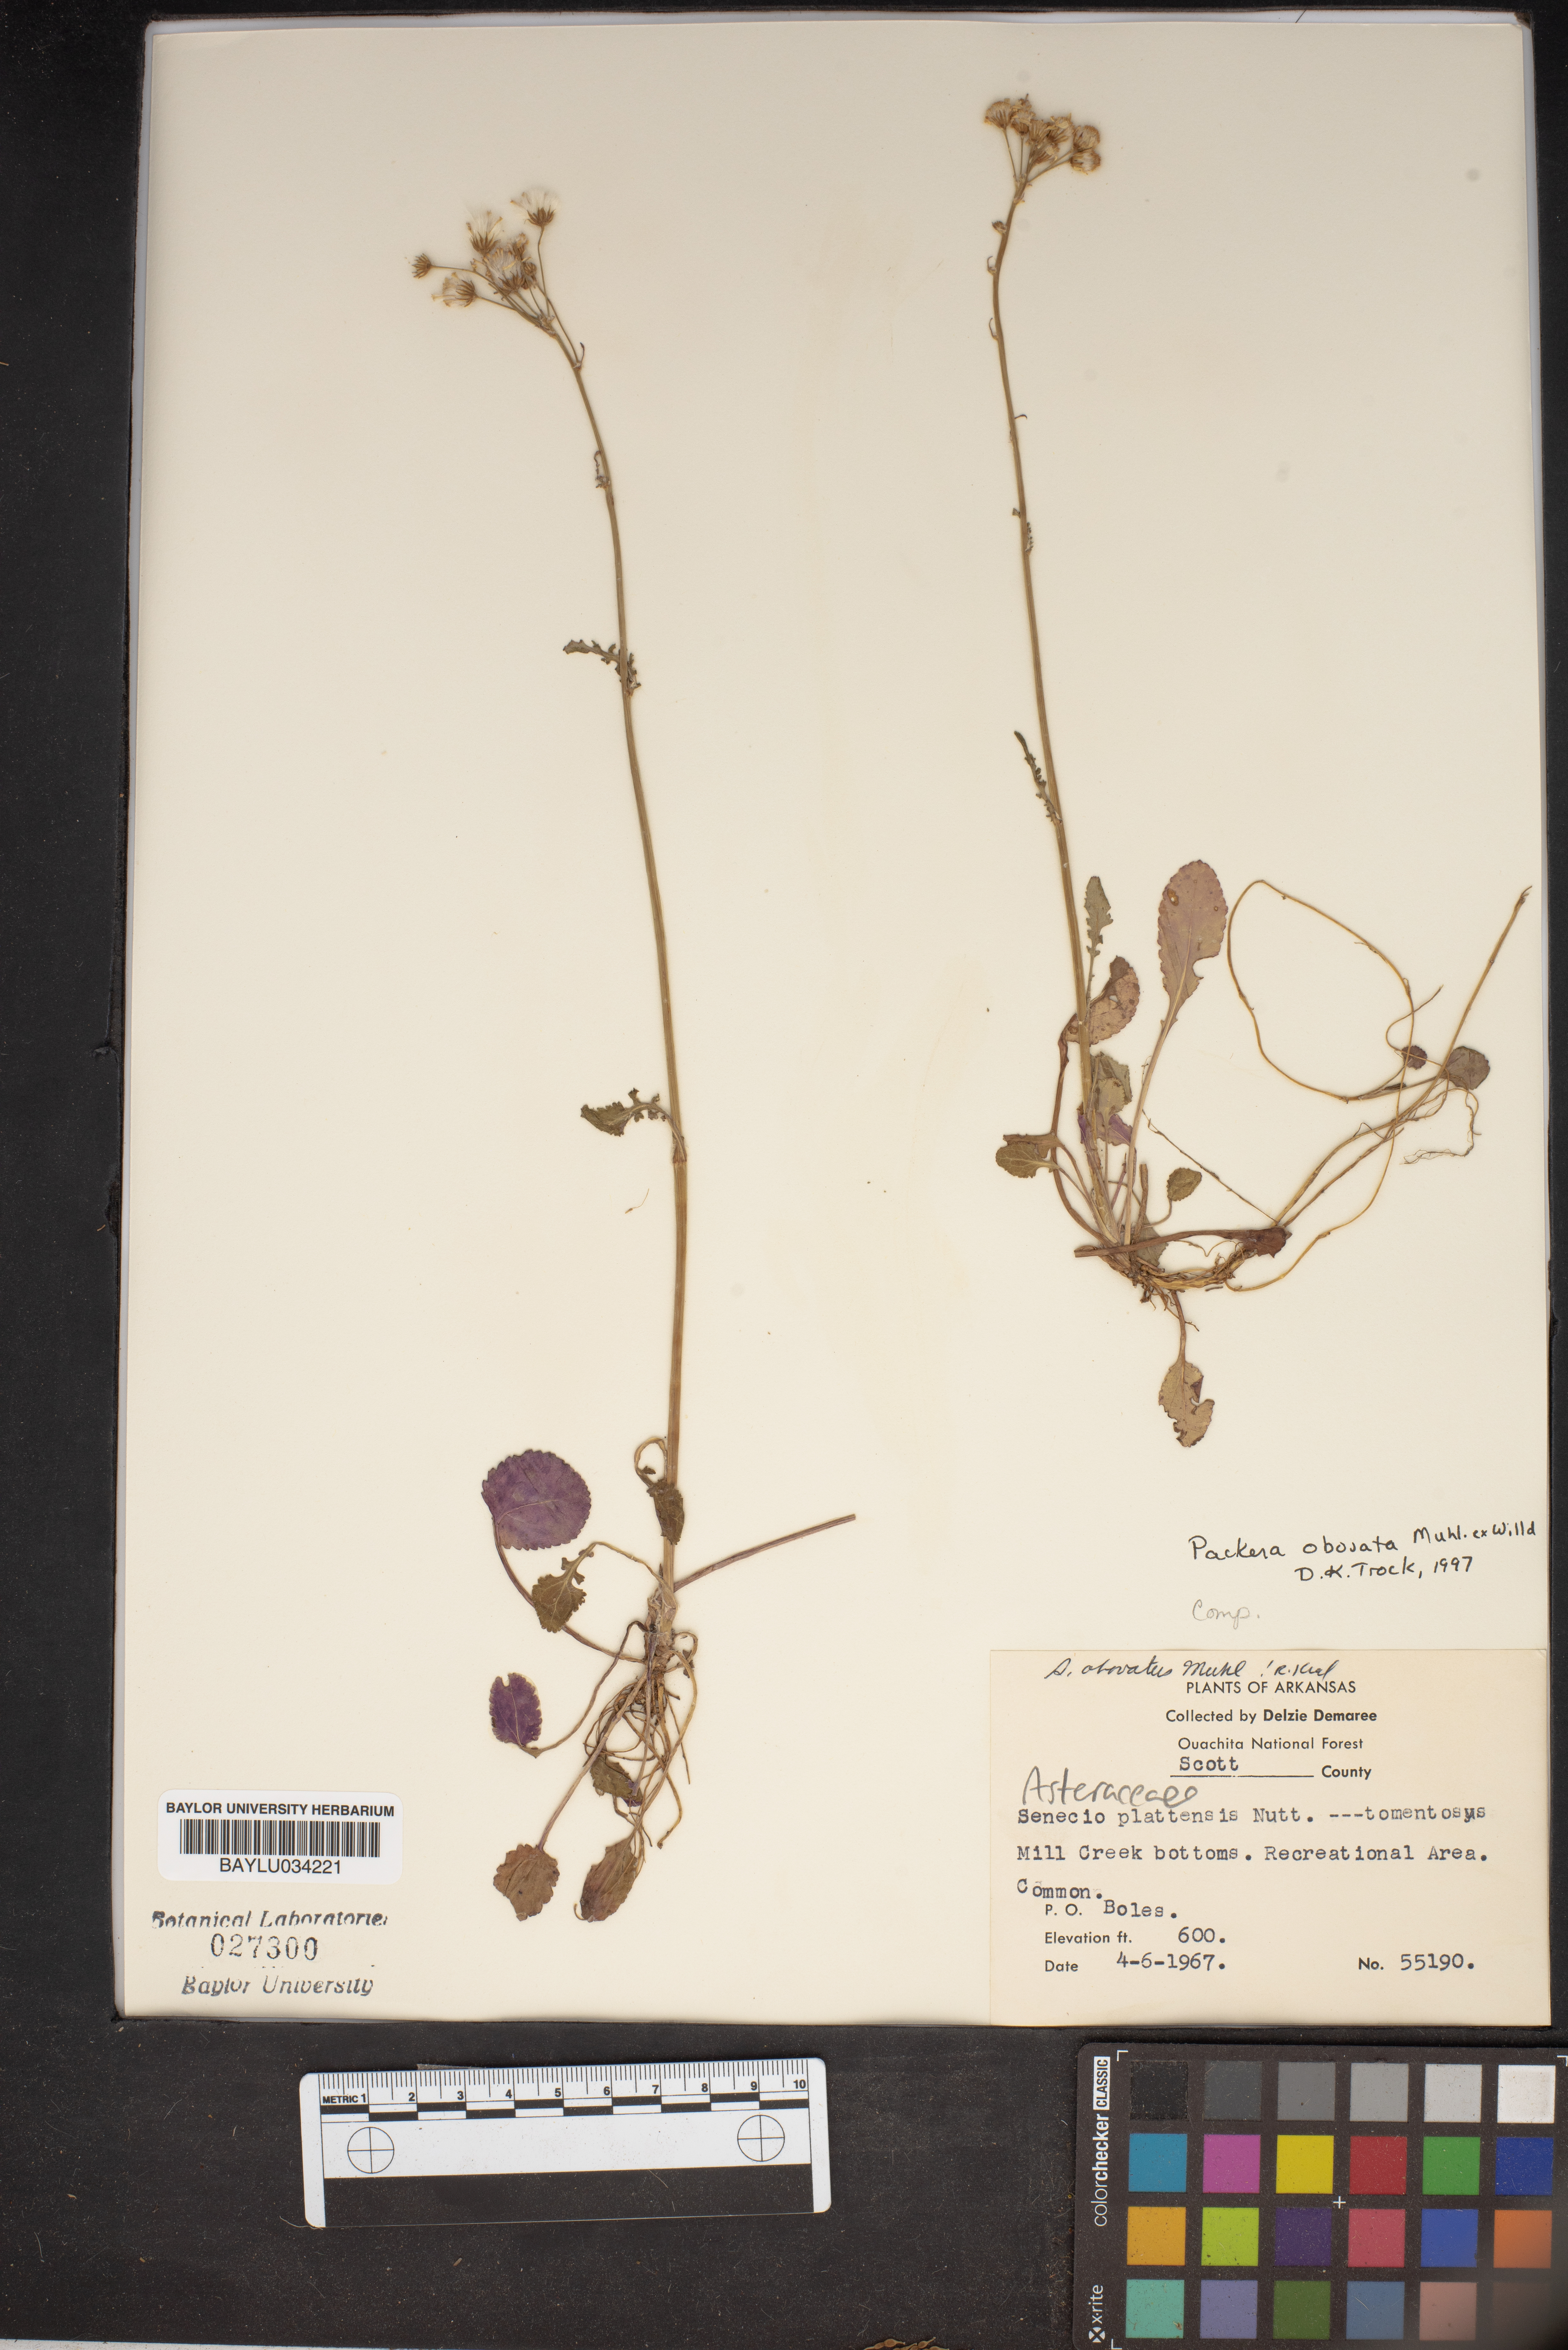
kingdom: Plantae
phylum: Tracheophyta
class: Magnoliopsida
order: Asterales
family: Asteraceae
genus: Packera
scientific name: Packera obovata
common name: Round-leaf ragwort
